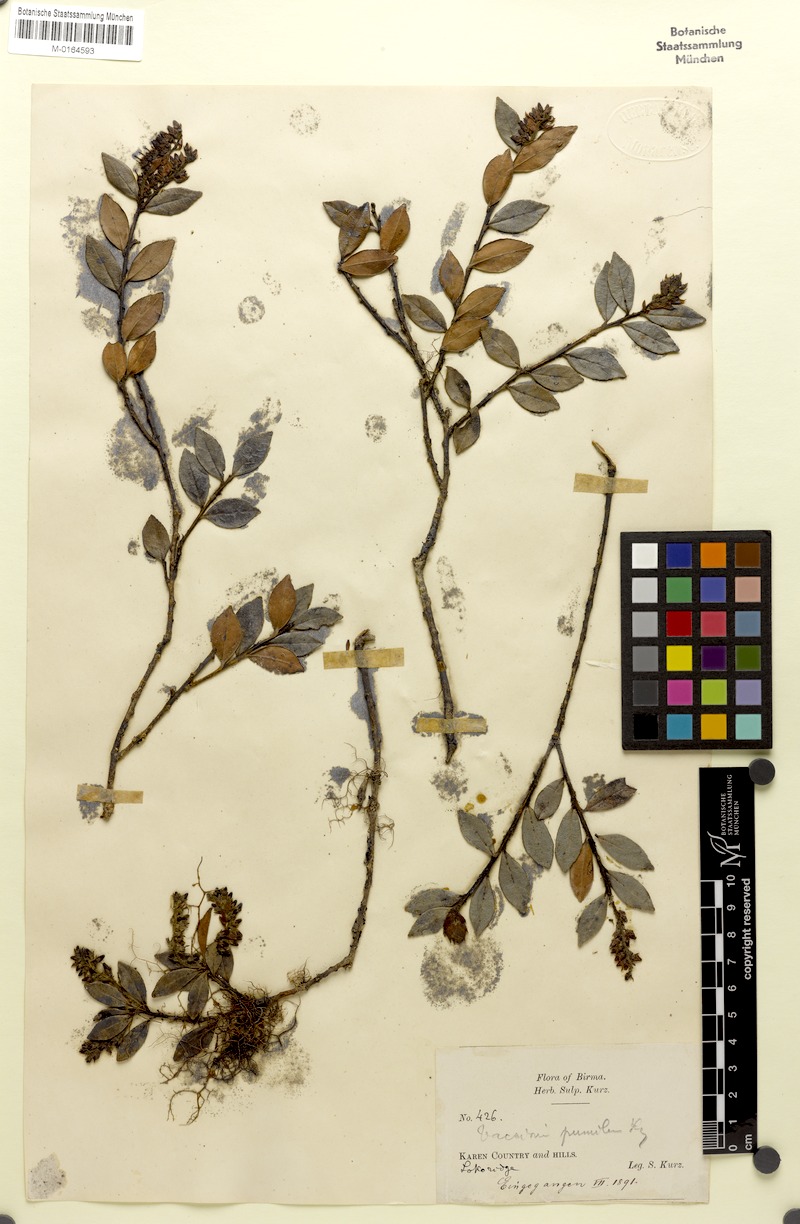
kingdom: Plantae
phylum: Tracheophyta
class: Magnoliopsida
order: Ericales
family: Ericaceae
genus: Vaccinium
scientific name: Vaccinium pumilum
